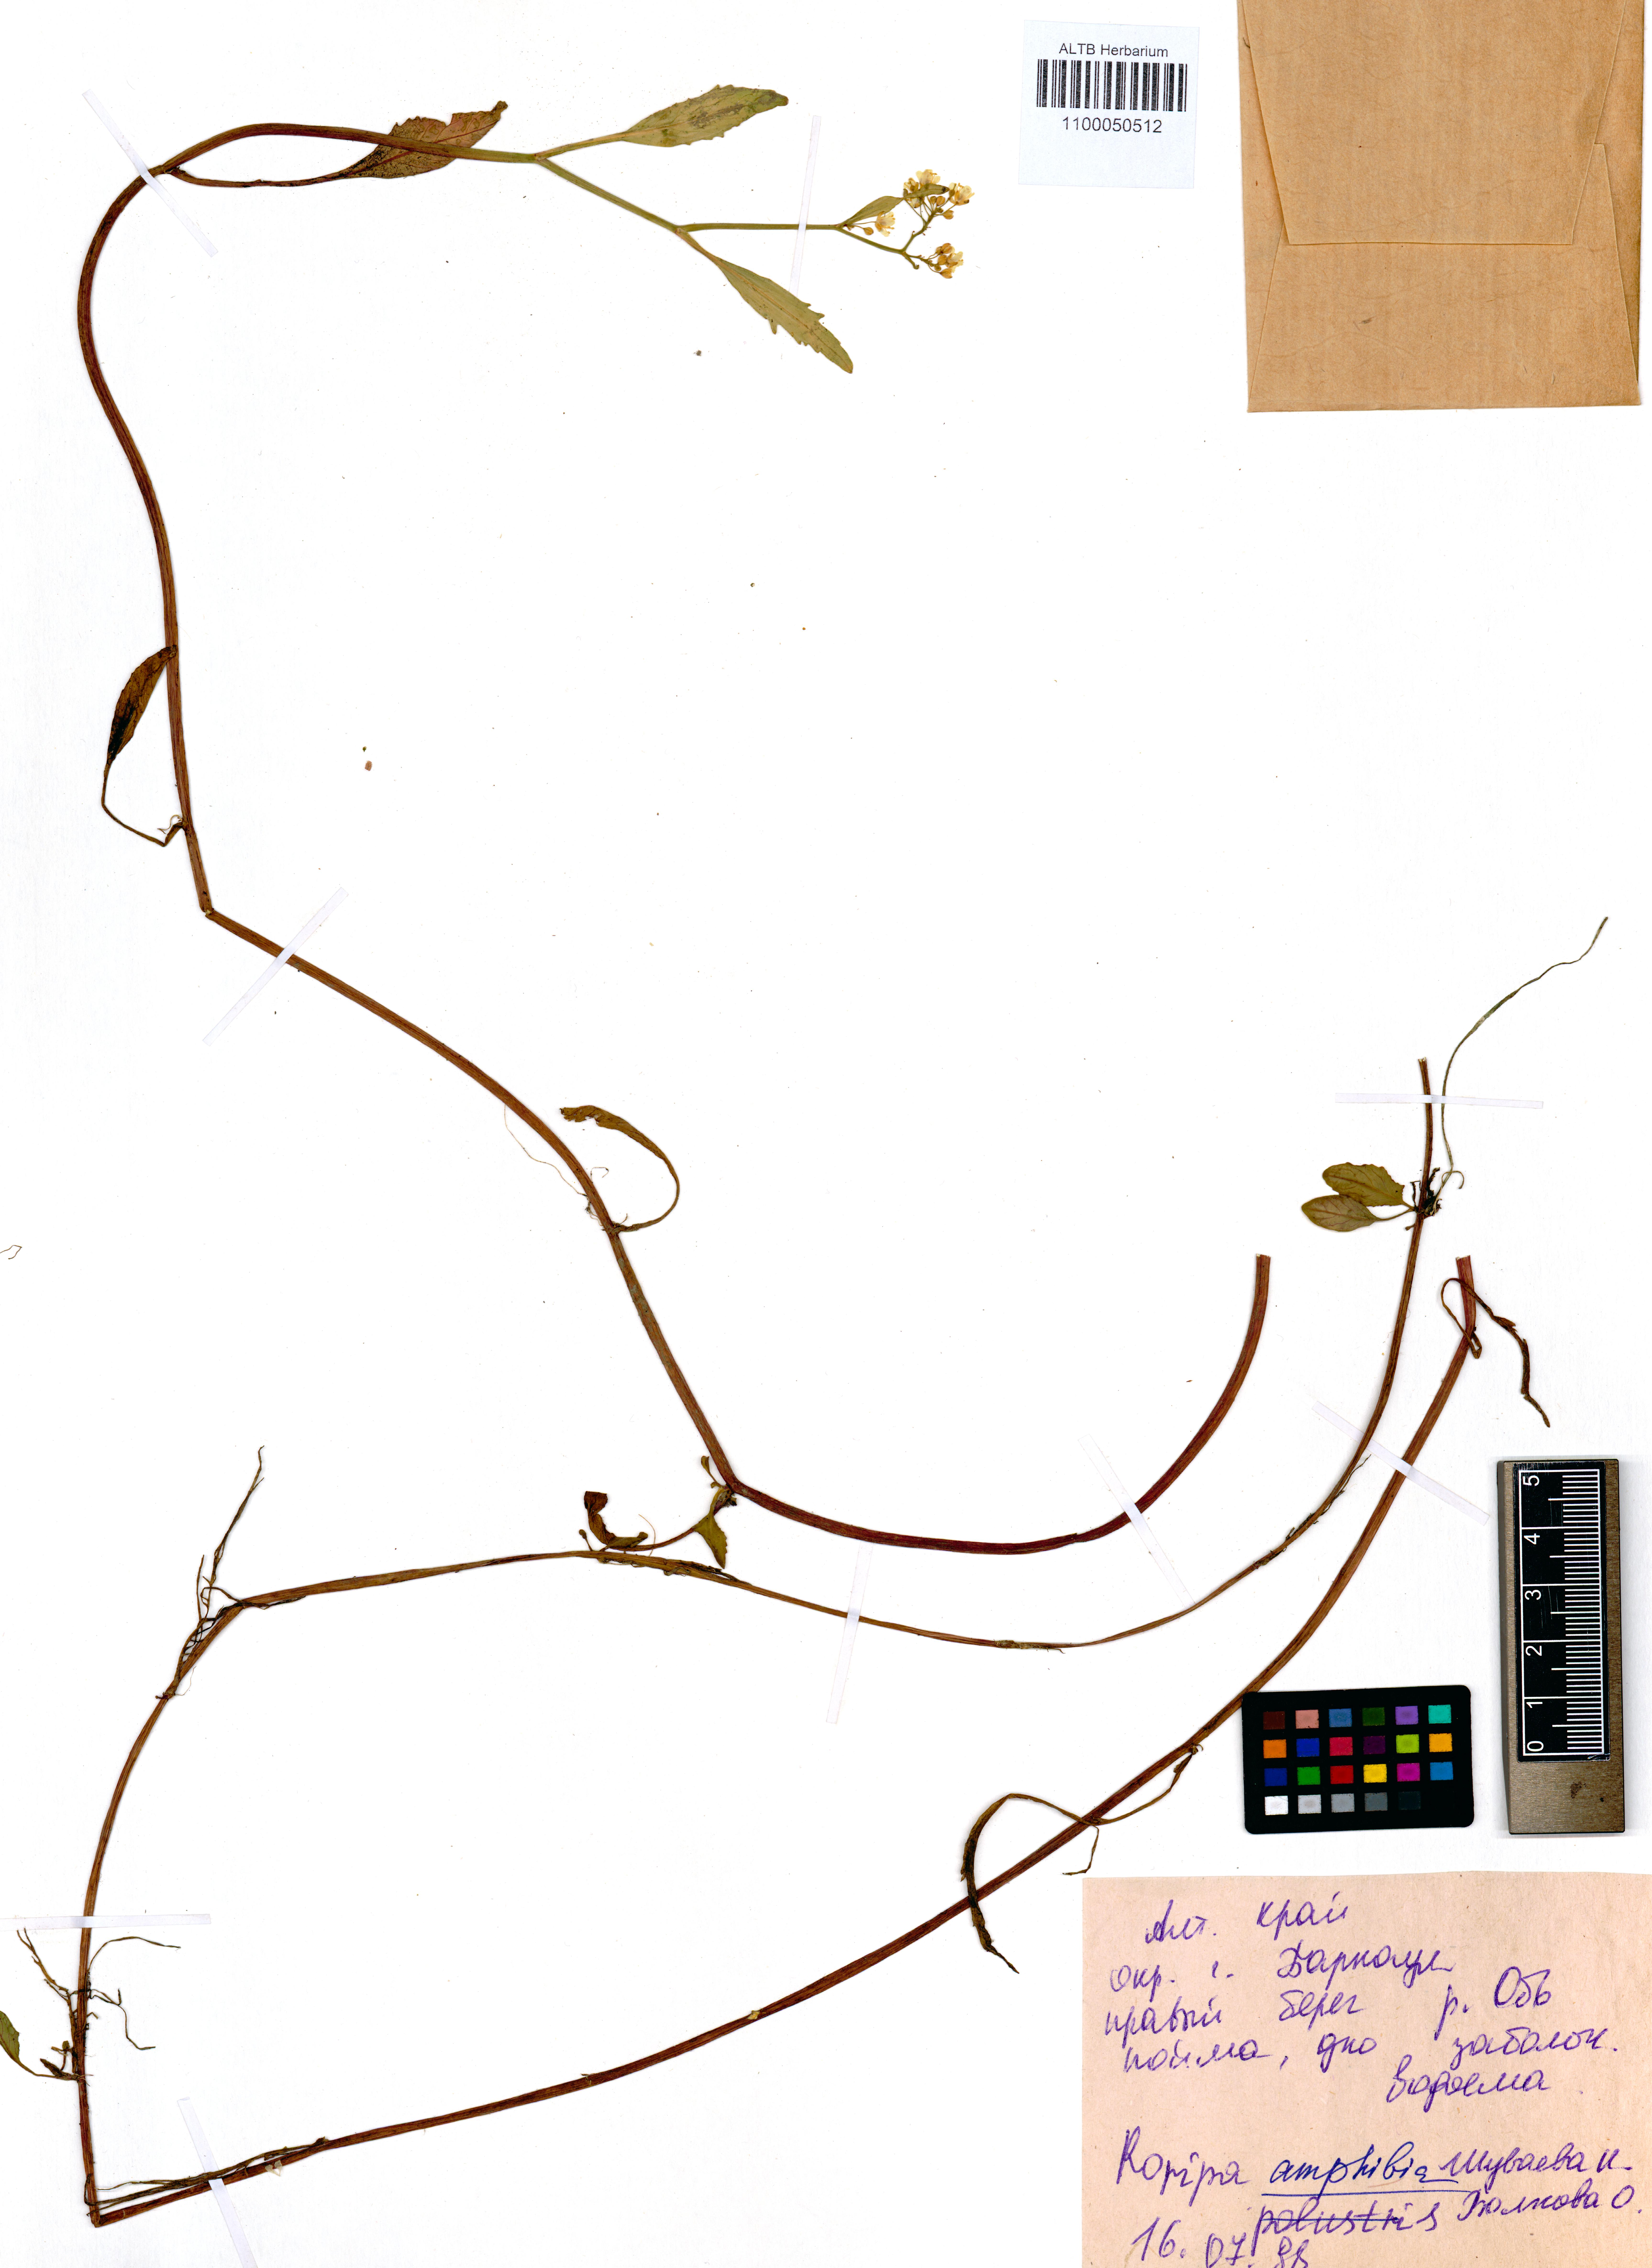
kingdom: Plantae
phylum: Tracheophyta
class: Magnoliopsida
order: Brassicales
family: Brassicaceae
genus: Rorippa
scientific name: Rorippa amphibia
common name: Great yellow-cress
